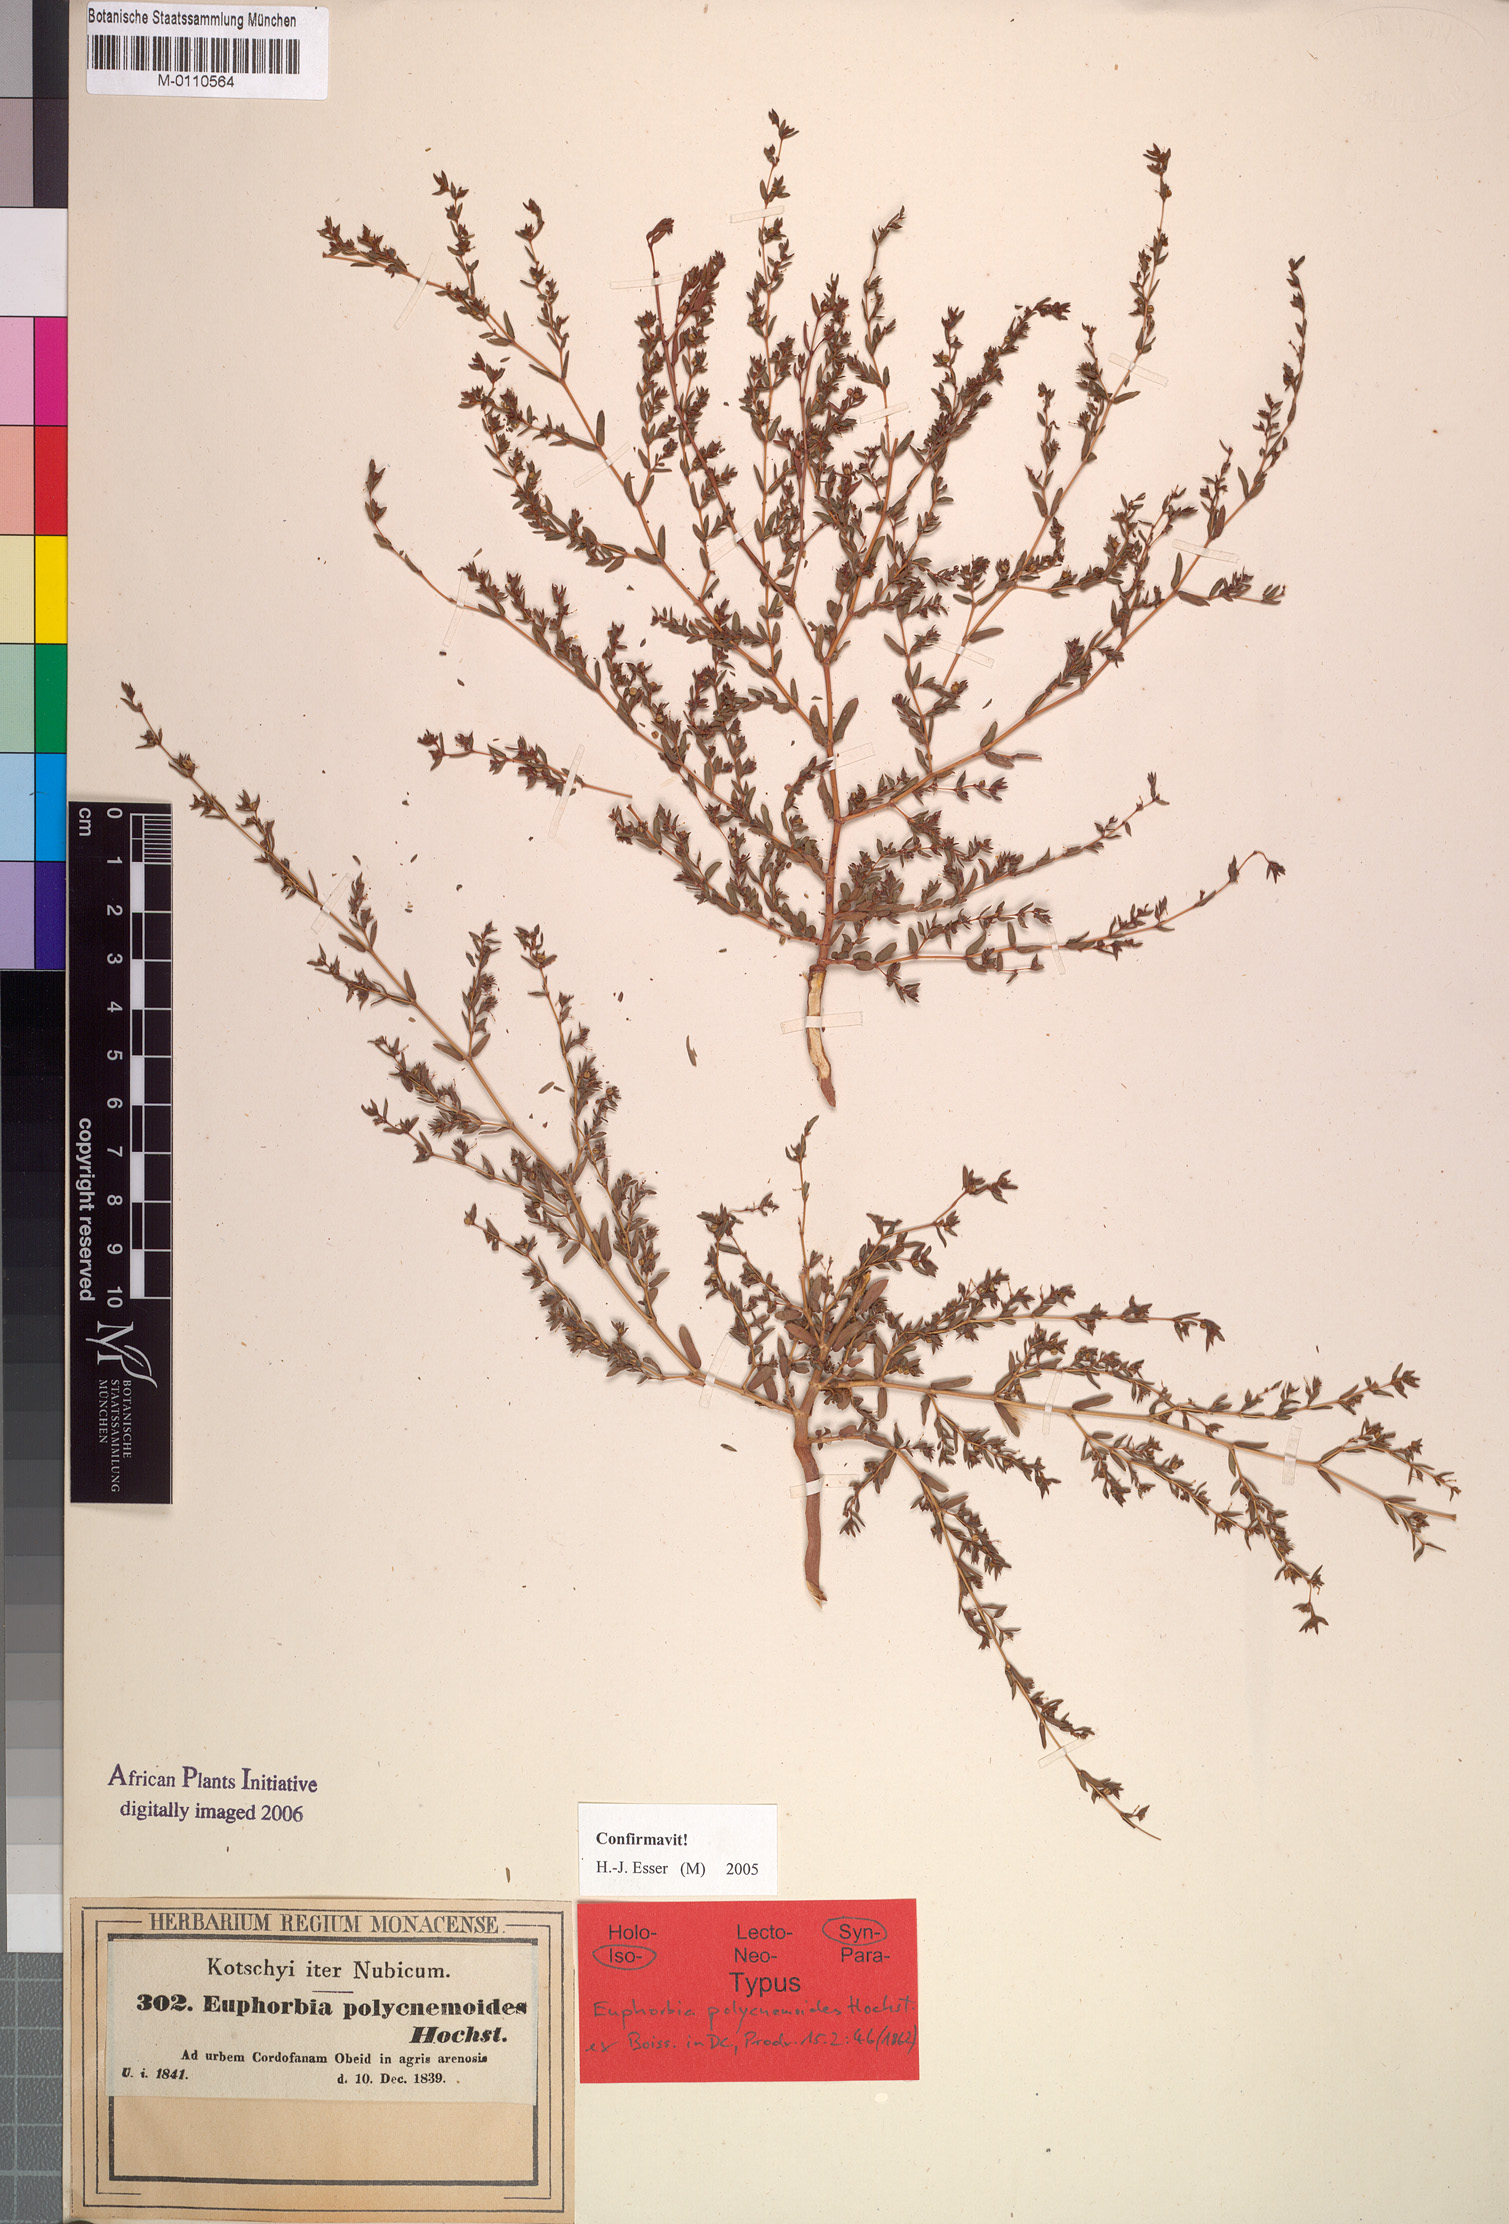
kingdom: Plantae
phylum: Tracheophyta
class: Magnoliopsida
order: Malpighiales
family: Euphorbiaceae
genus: Euphorbia
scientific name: Euphorbia polycnemoides
